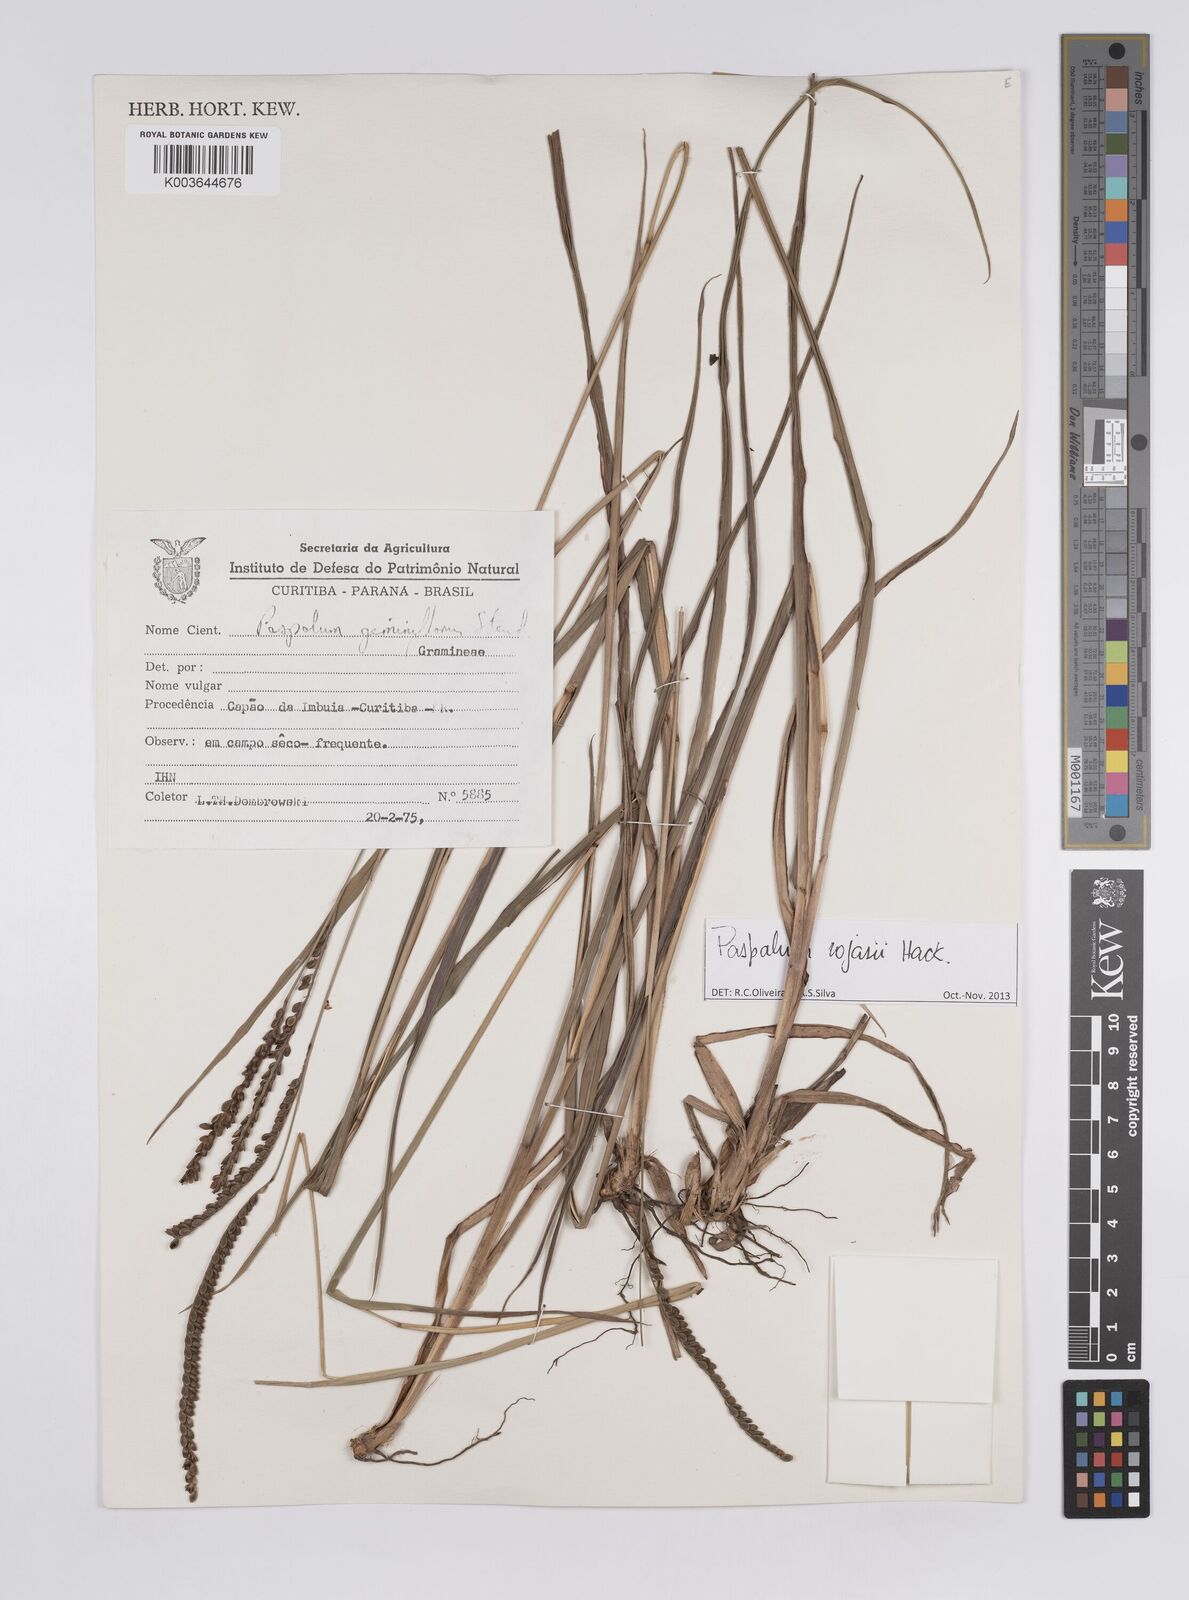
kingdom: Plantae
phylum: Tracheophyta
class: Liliopsida
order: Poales
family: Poaceae
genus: Paspalum
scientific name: Paspalum guenoarum
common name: Wintergreen paspalum
